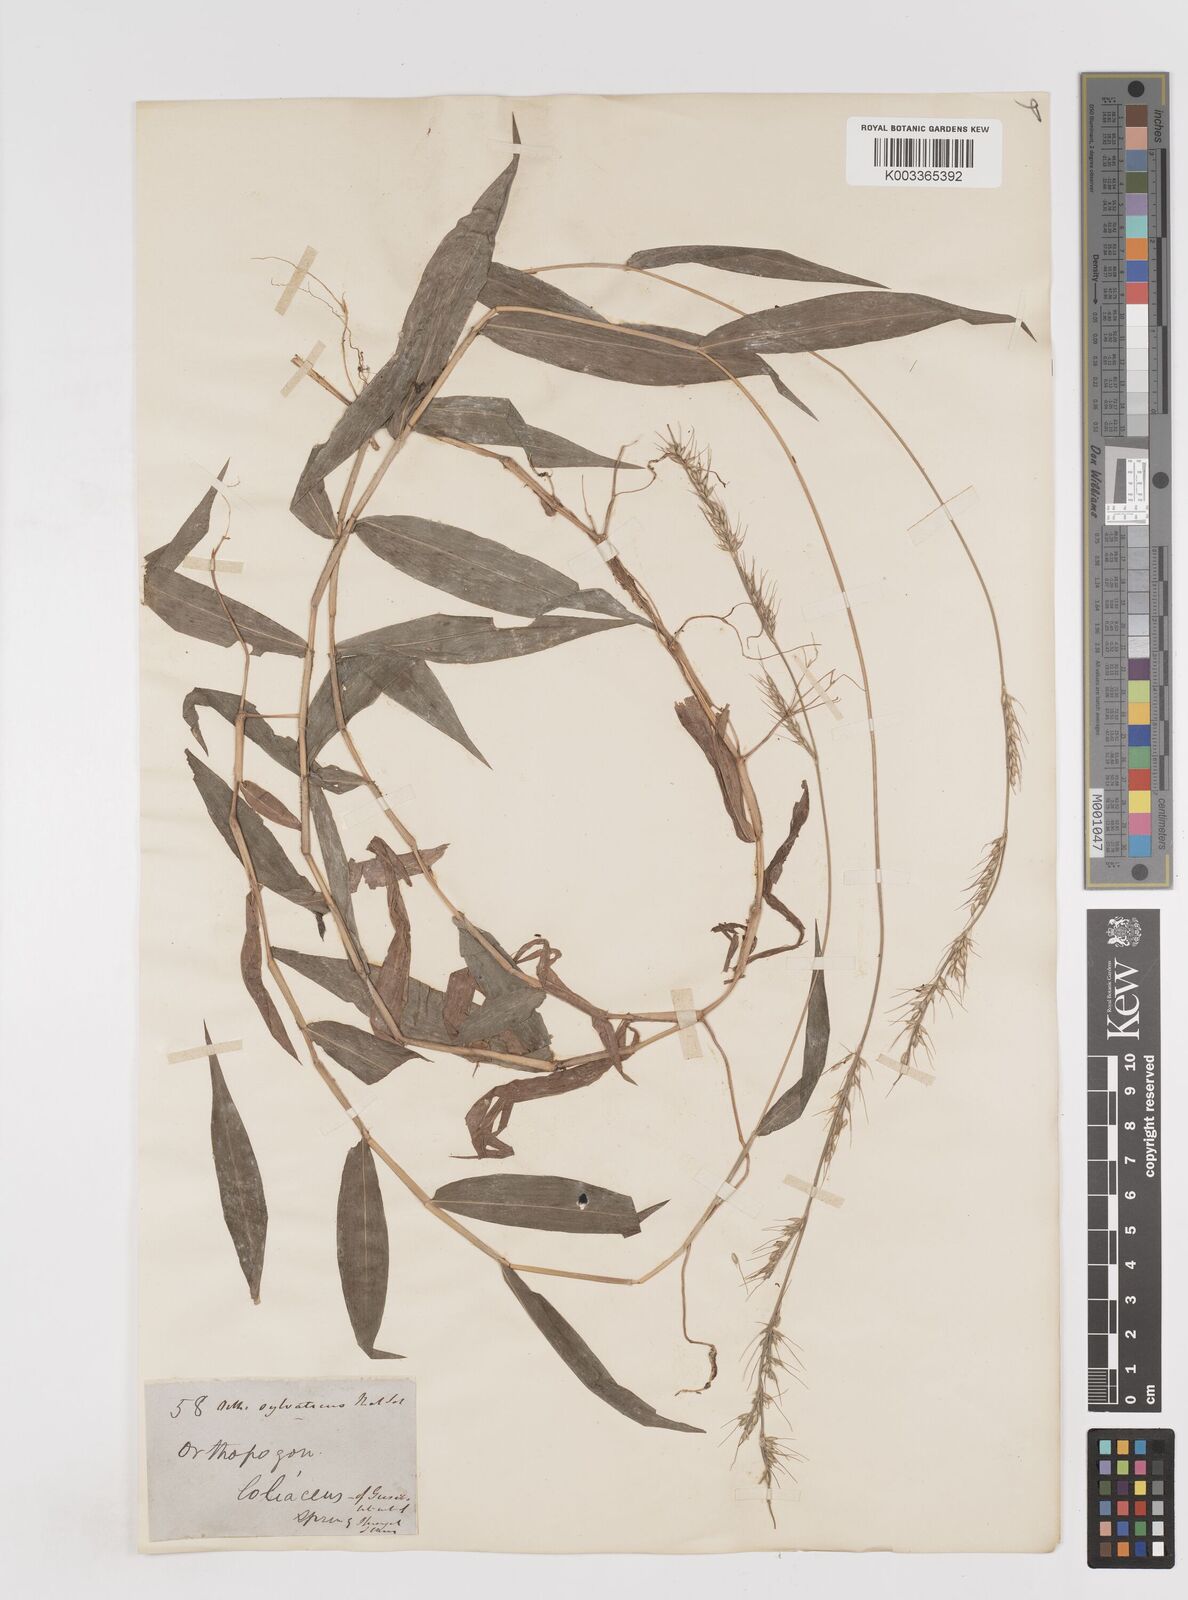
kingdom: Plantae
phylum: Tracheophyta
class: Liliopsida
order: Poales
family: Poaceae
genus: Oplismenus
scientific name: Oplismenus hirtellus
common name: Basketgrass
